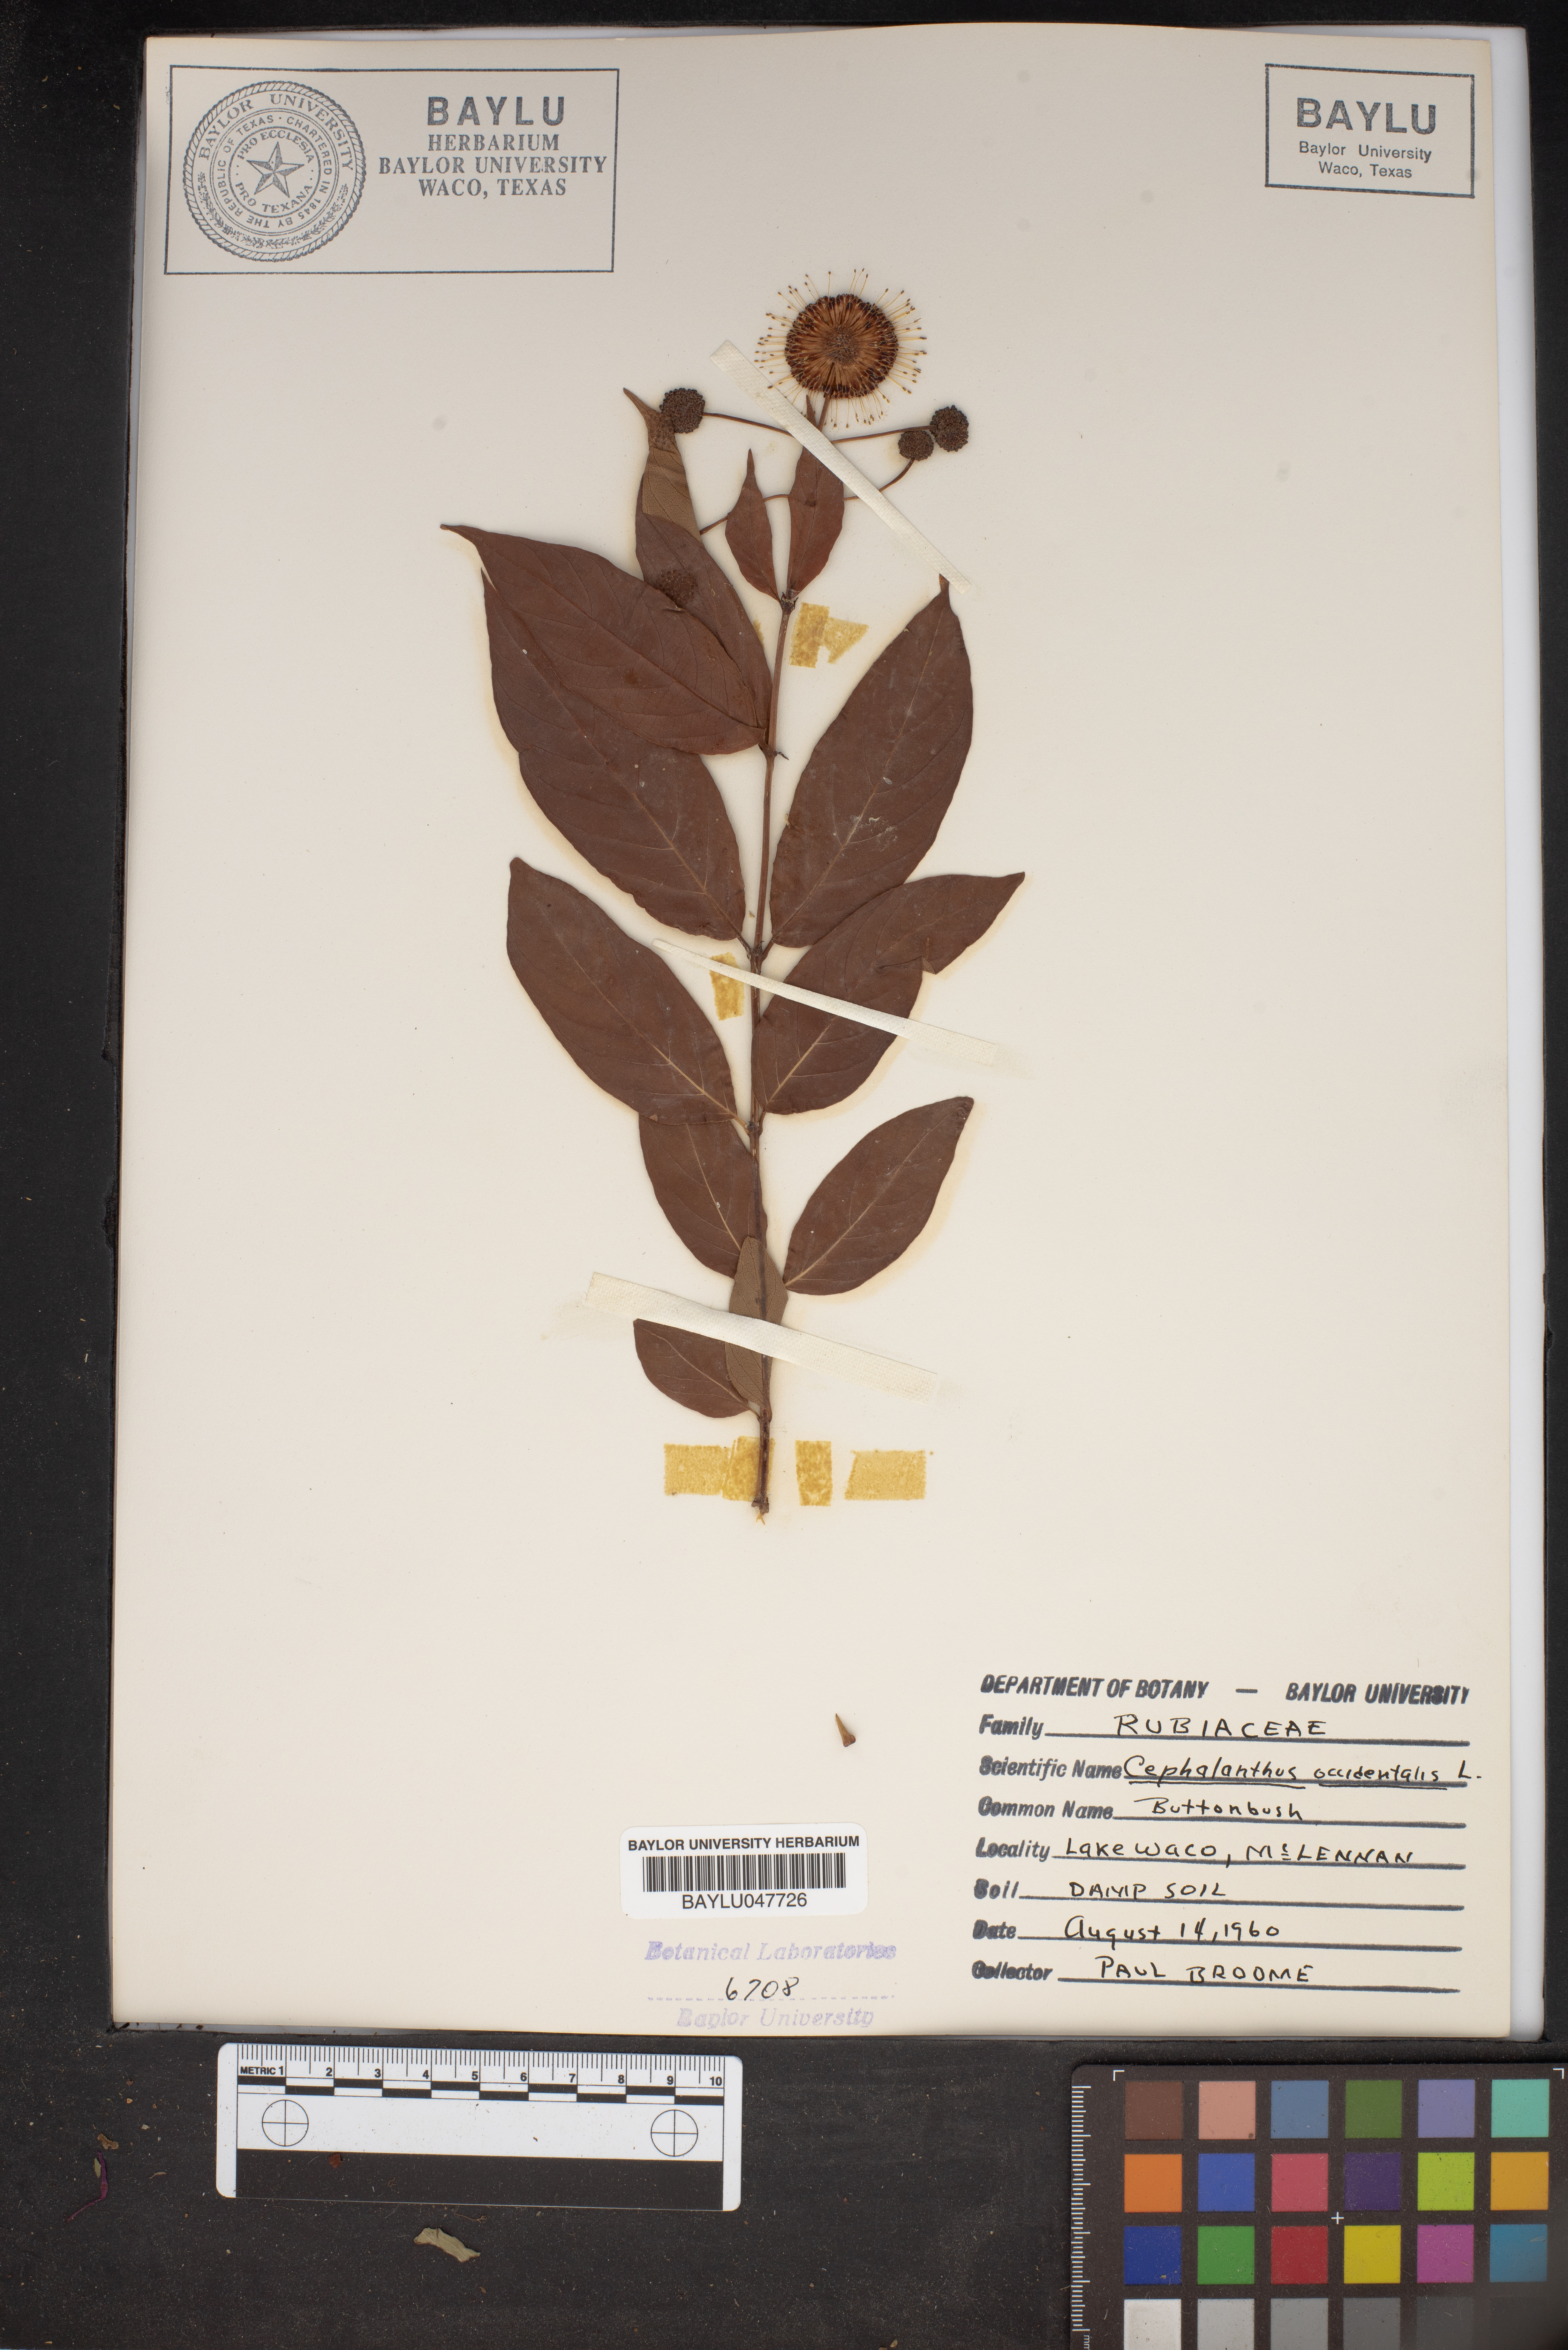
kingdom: Plantae
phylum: Tracheophyta
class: Magnoliopsida
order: Gentianales
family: Rubiaceae
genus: Cephalanthus
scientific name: Cephalanthus occidentalis
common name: Button-willow
